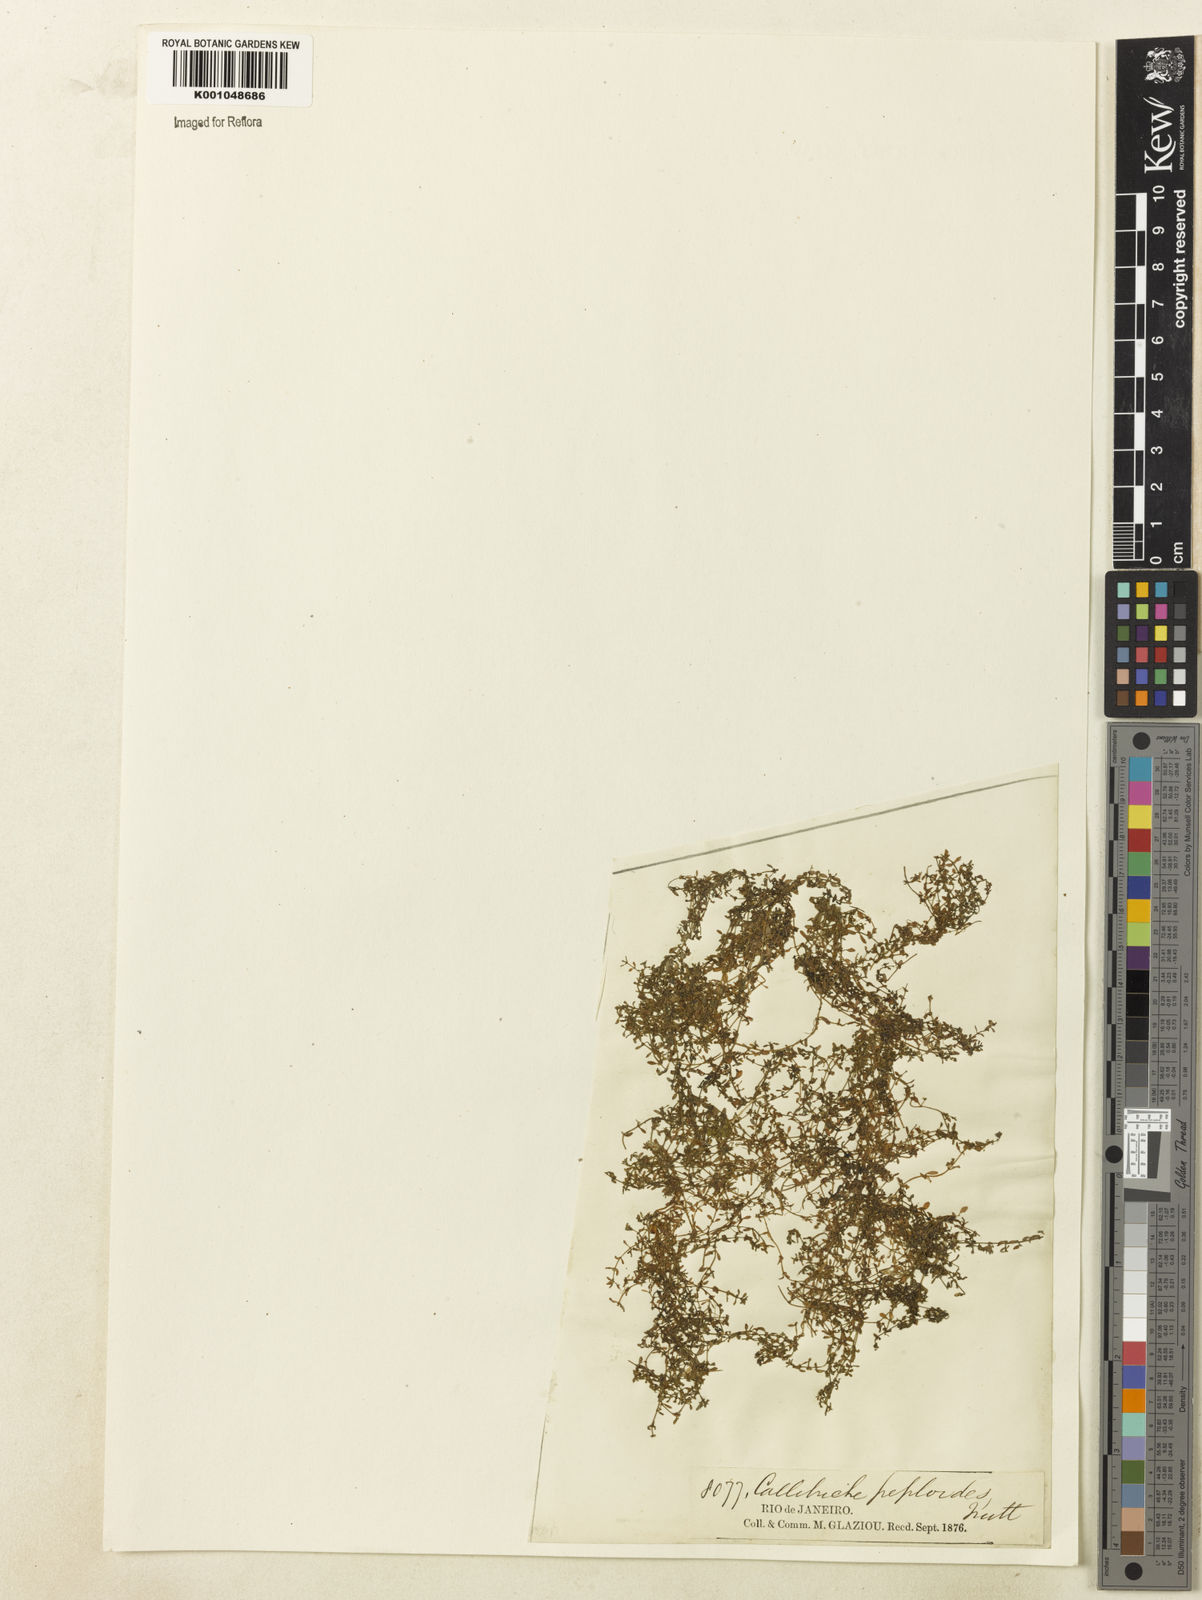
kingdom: Plantae
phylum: Tracheophyta
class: Magnoliopsida
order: Lamiales
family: Plantaginaceae
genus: Callitriche
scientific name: Callitriche peploides
